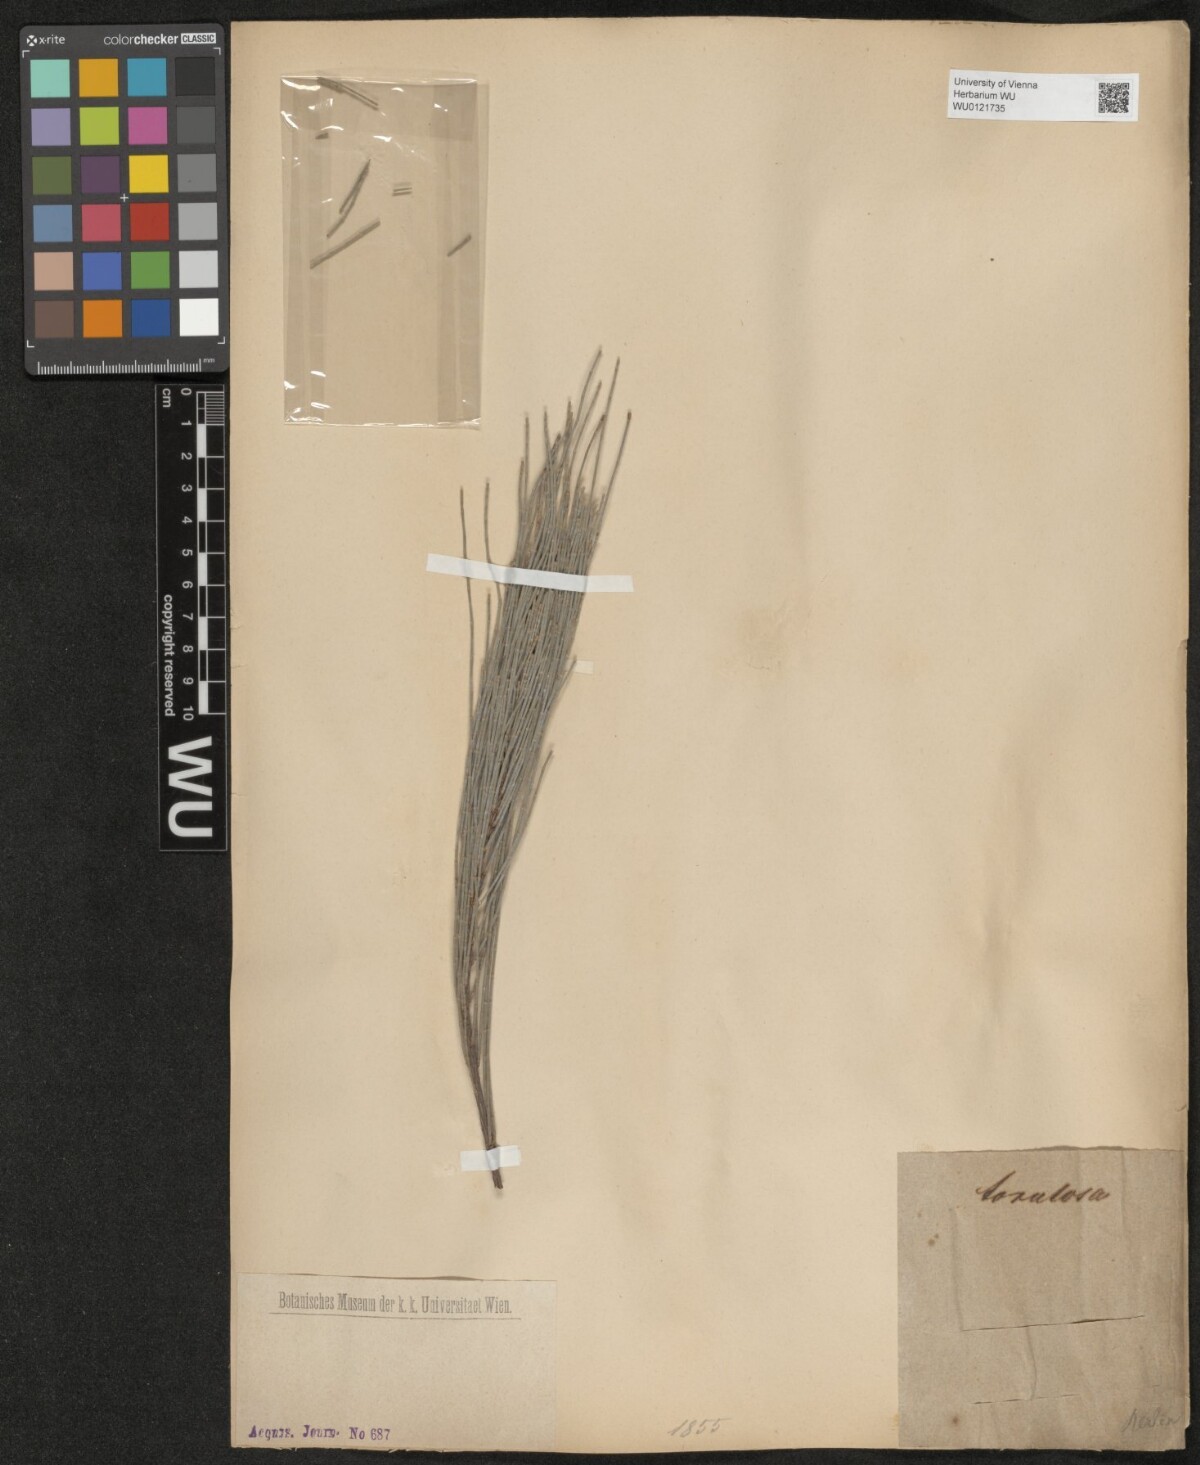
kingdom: Plantae
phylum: Tracheophyta
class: Magnoliopsida
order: Fagales
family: Casuarinaceae
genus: Allocasuarina
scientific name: Allocasuarina torulosa
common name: Forest-oak
